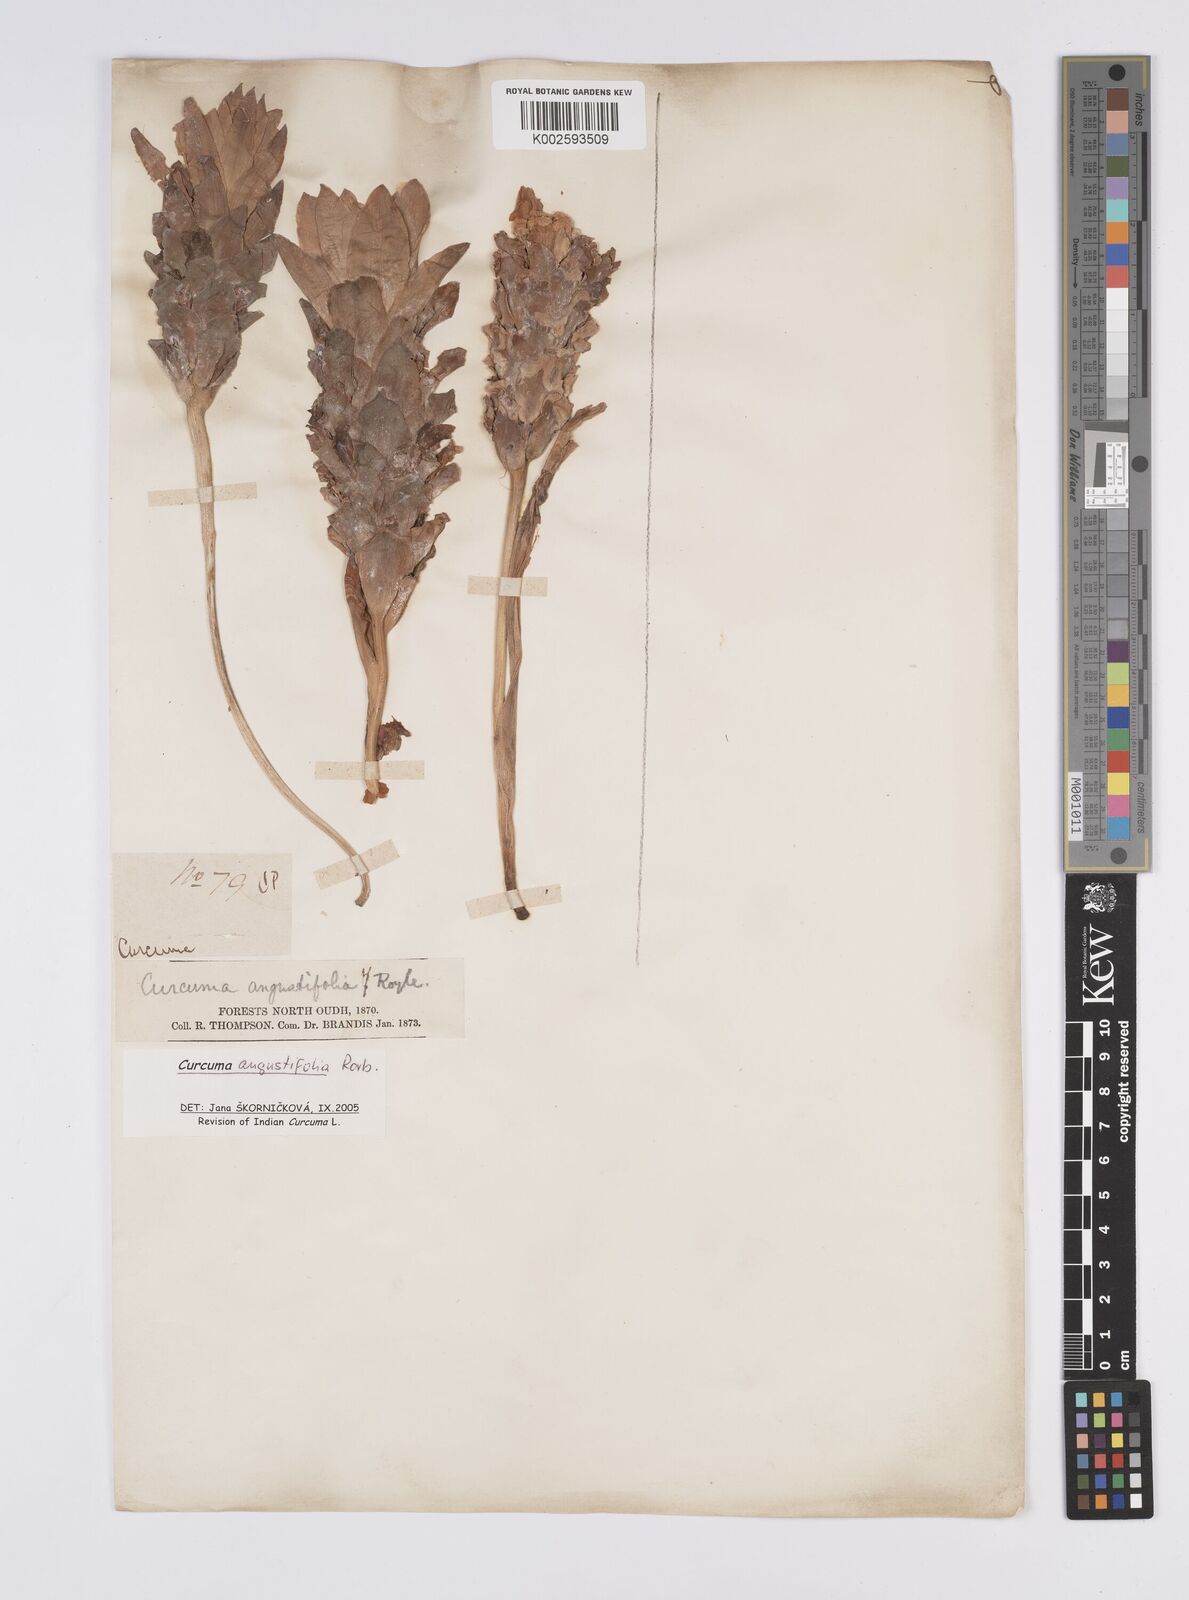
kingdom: Plantae
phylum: Tracheophyta
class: Liliopsida
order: Zingiberales
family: Zingiberaceae
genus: Curcuma
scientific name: Curcuma angustifolia
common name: East indian arrowroot
